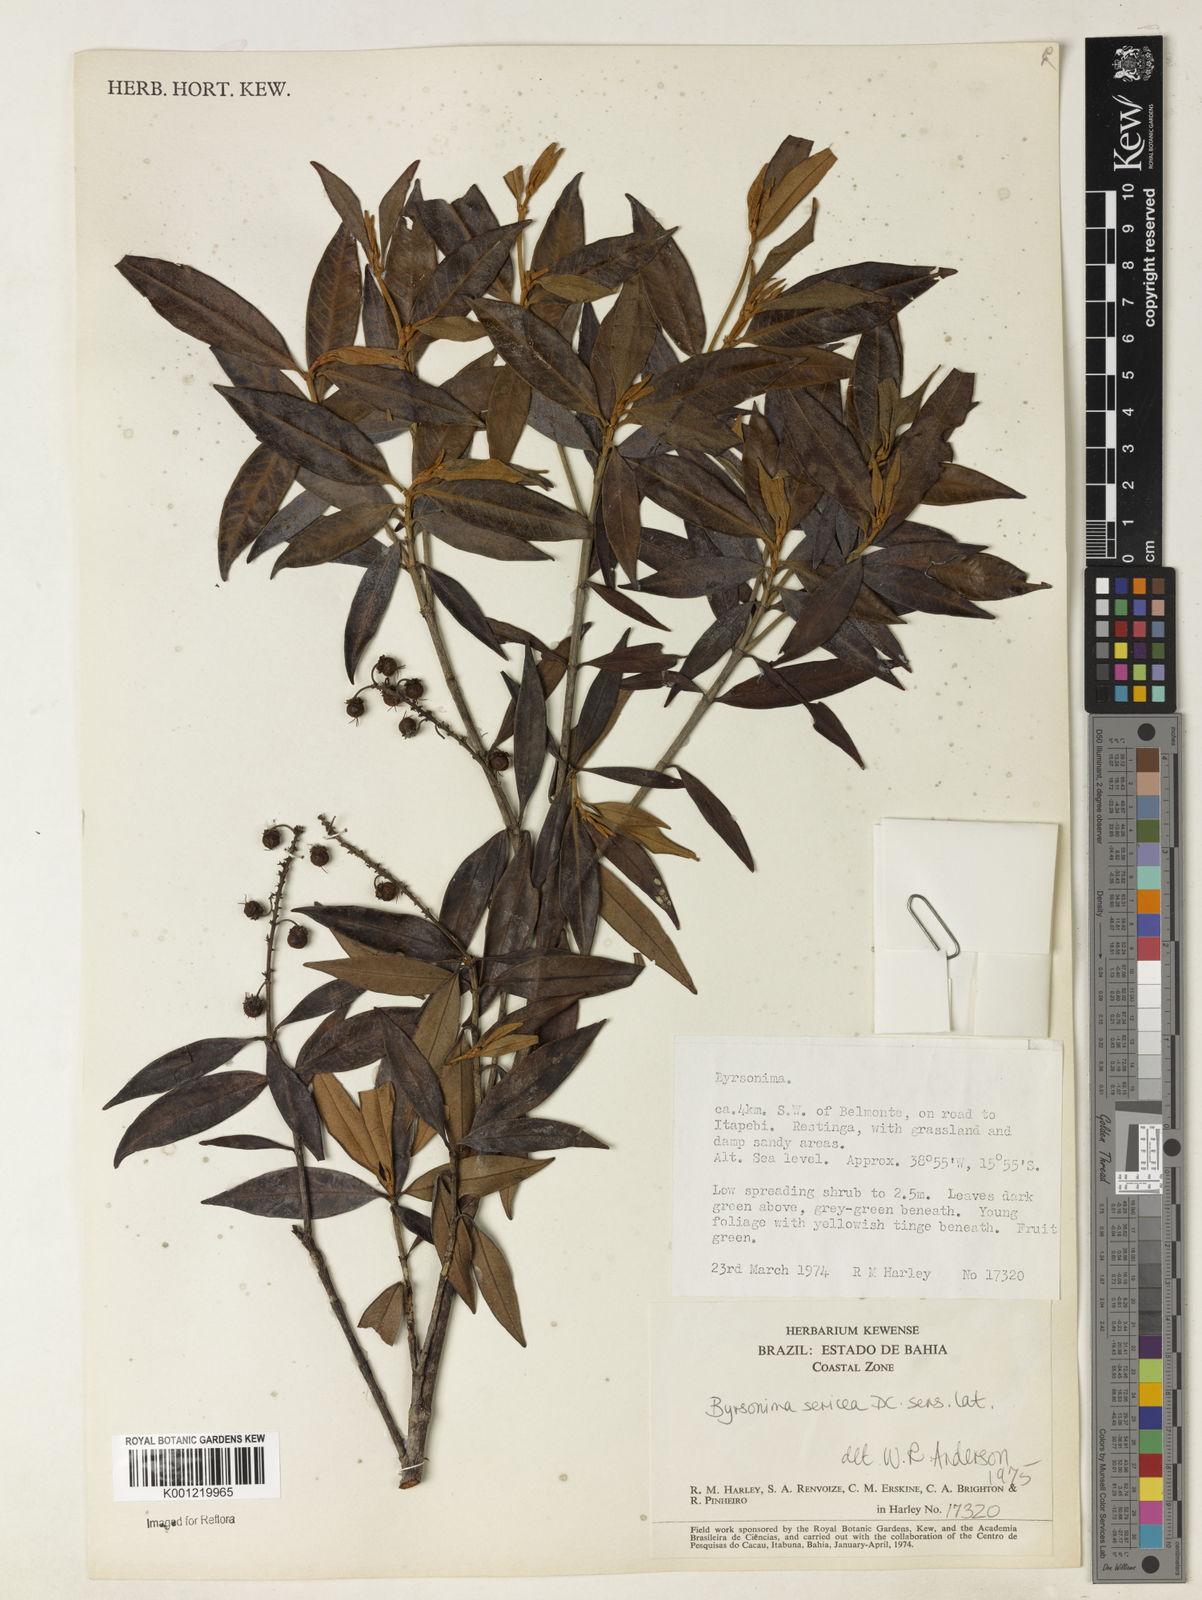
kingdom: Plantae
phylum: Tracheophyta
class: Magnoliopsida
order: Malpighiales
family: Malpighiaceae
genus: Byrsonima
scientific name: Byrsonima sericea
